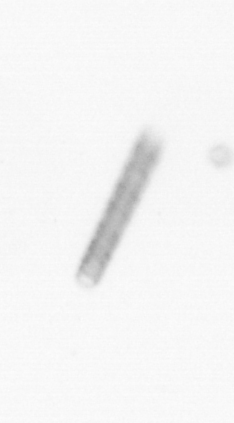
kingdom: Chromista
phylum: Ochrophyta
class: Bacillariophyceae
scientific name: Bacillariophyceae
